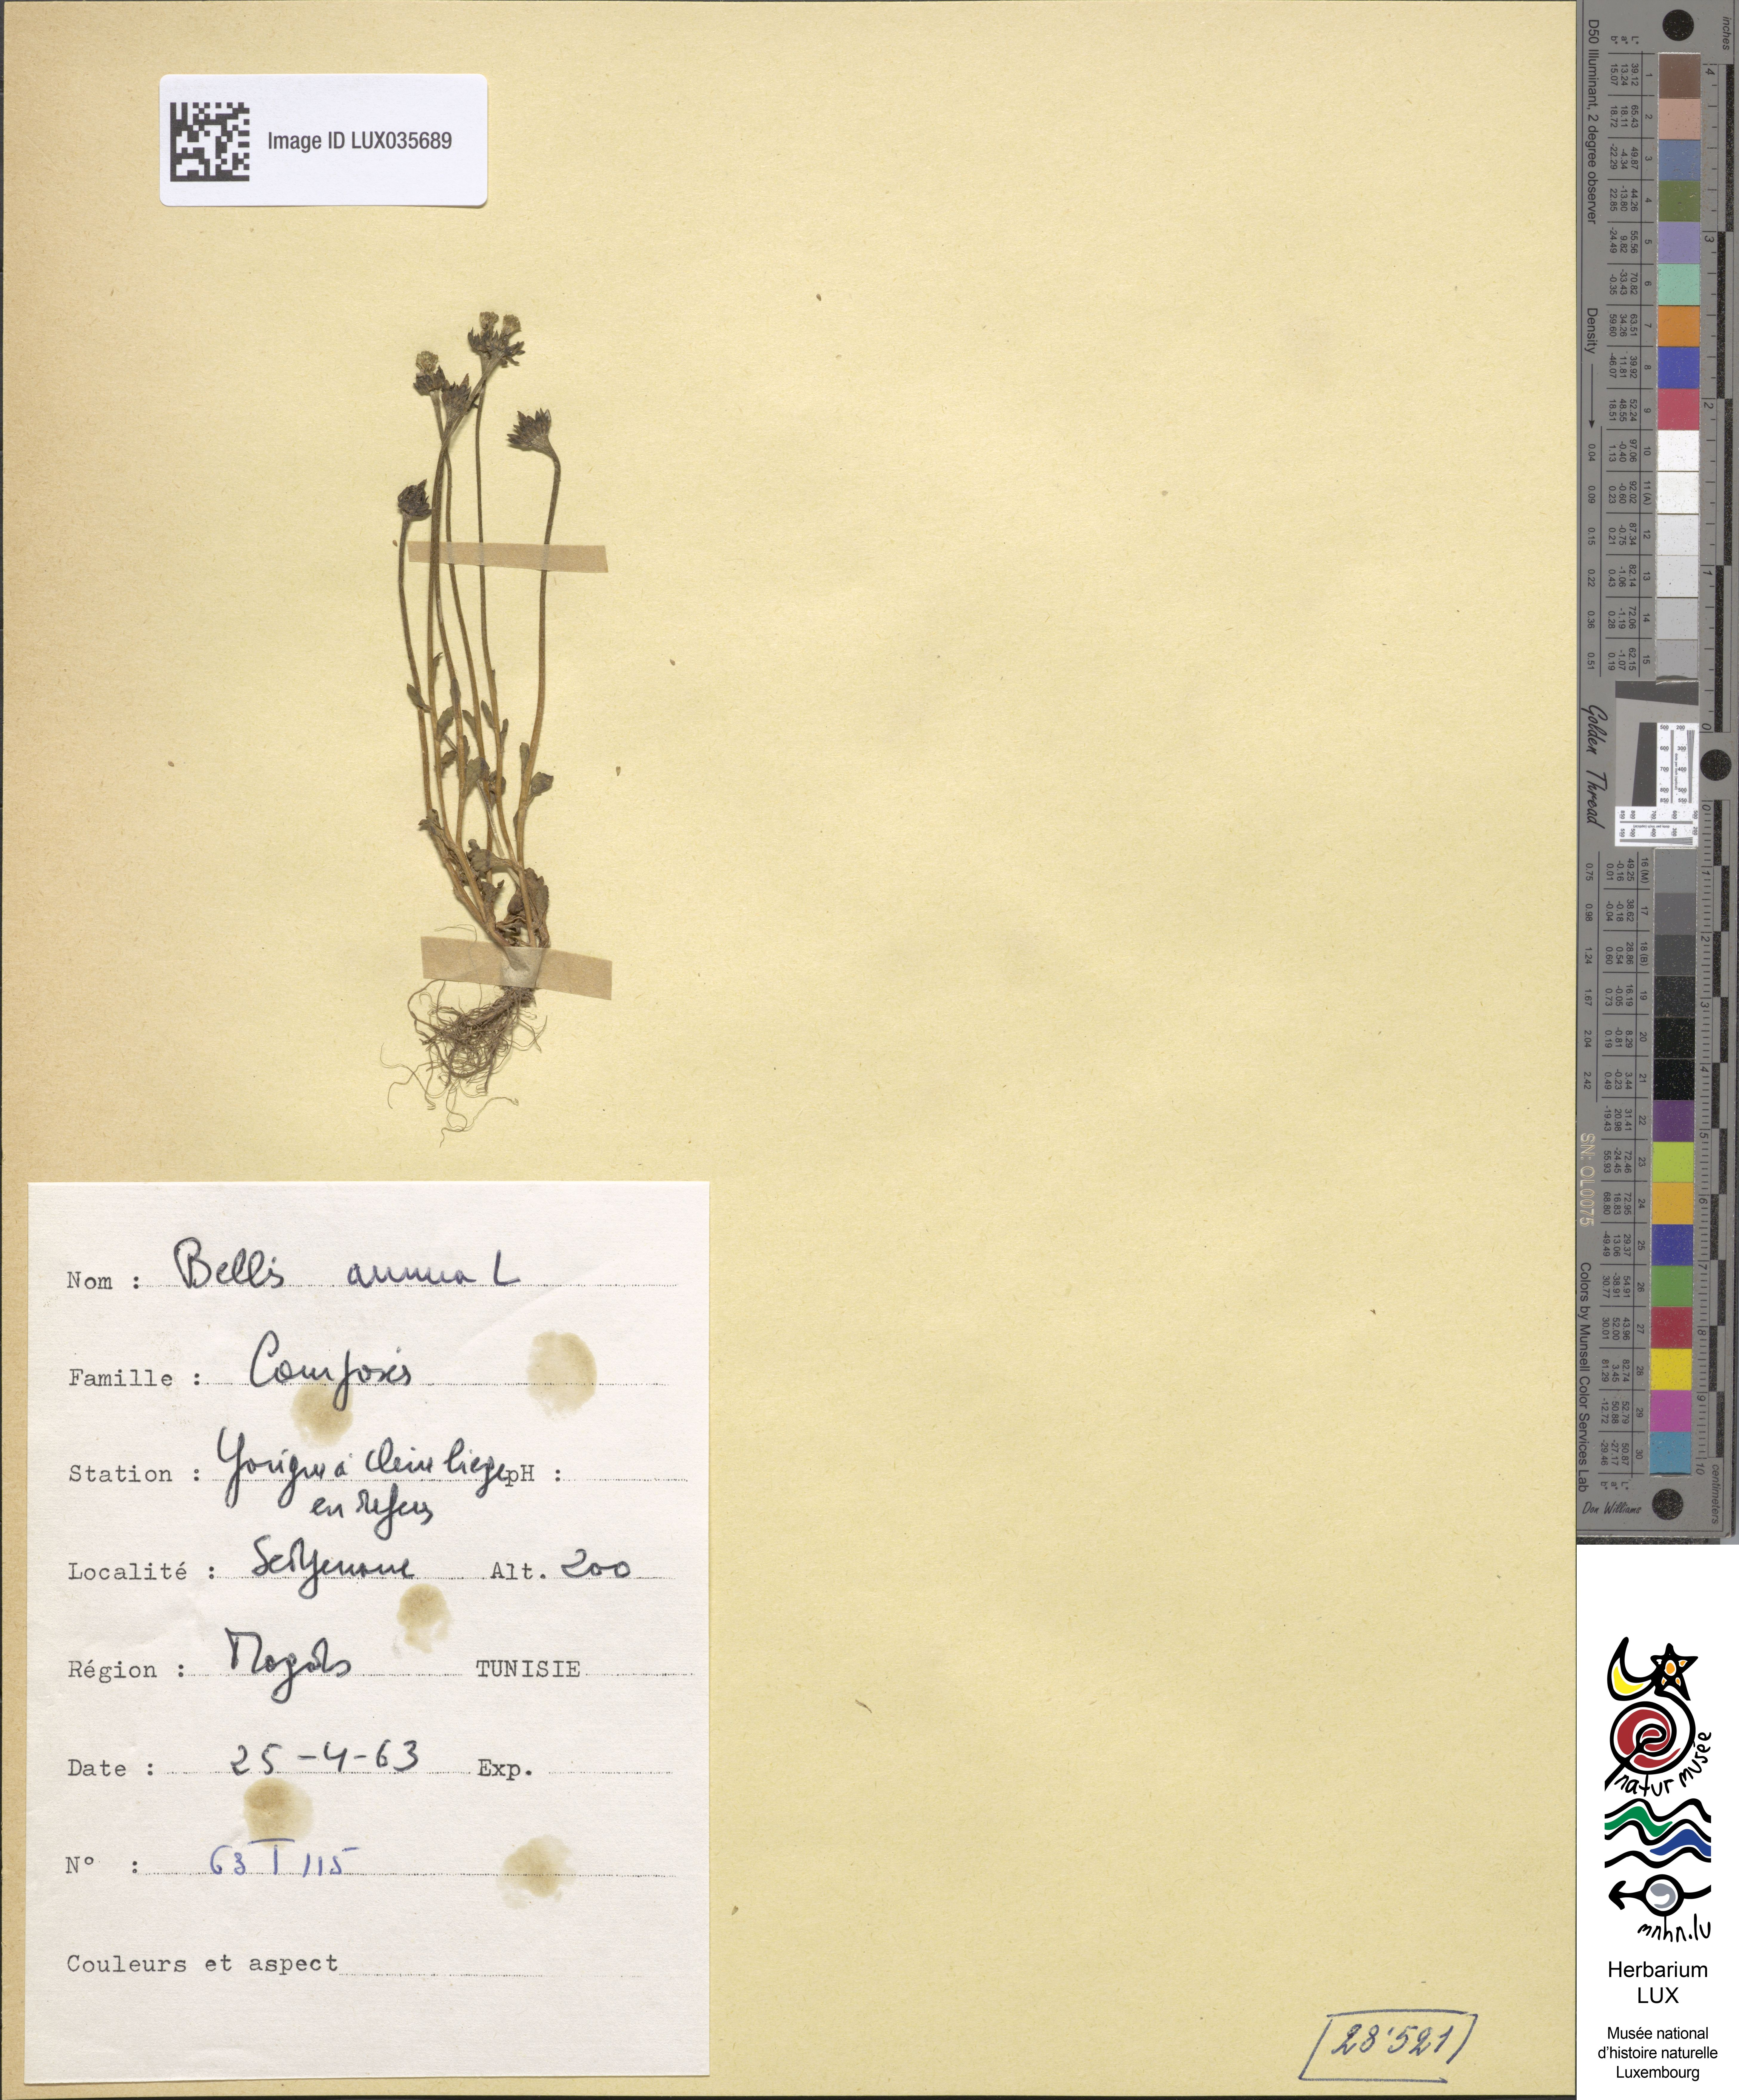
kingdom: Plantae
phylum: Tracheophyta
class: Magnoliopsida
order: Asterales
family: Asteraceae
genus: Bellis
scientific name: Bellis annua
